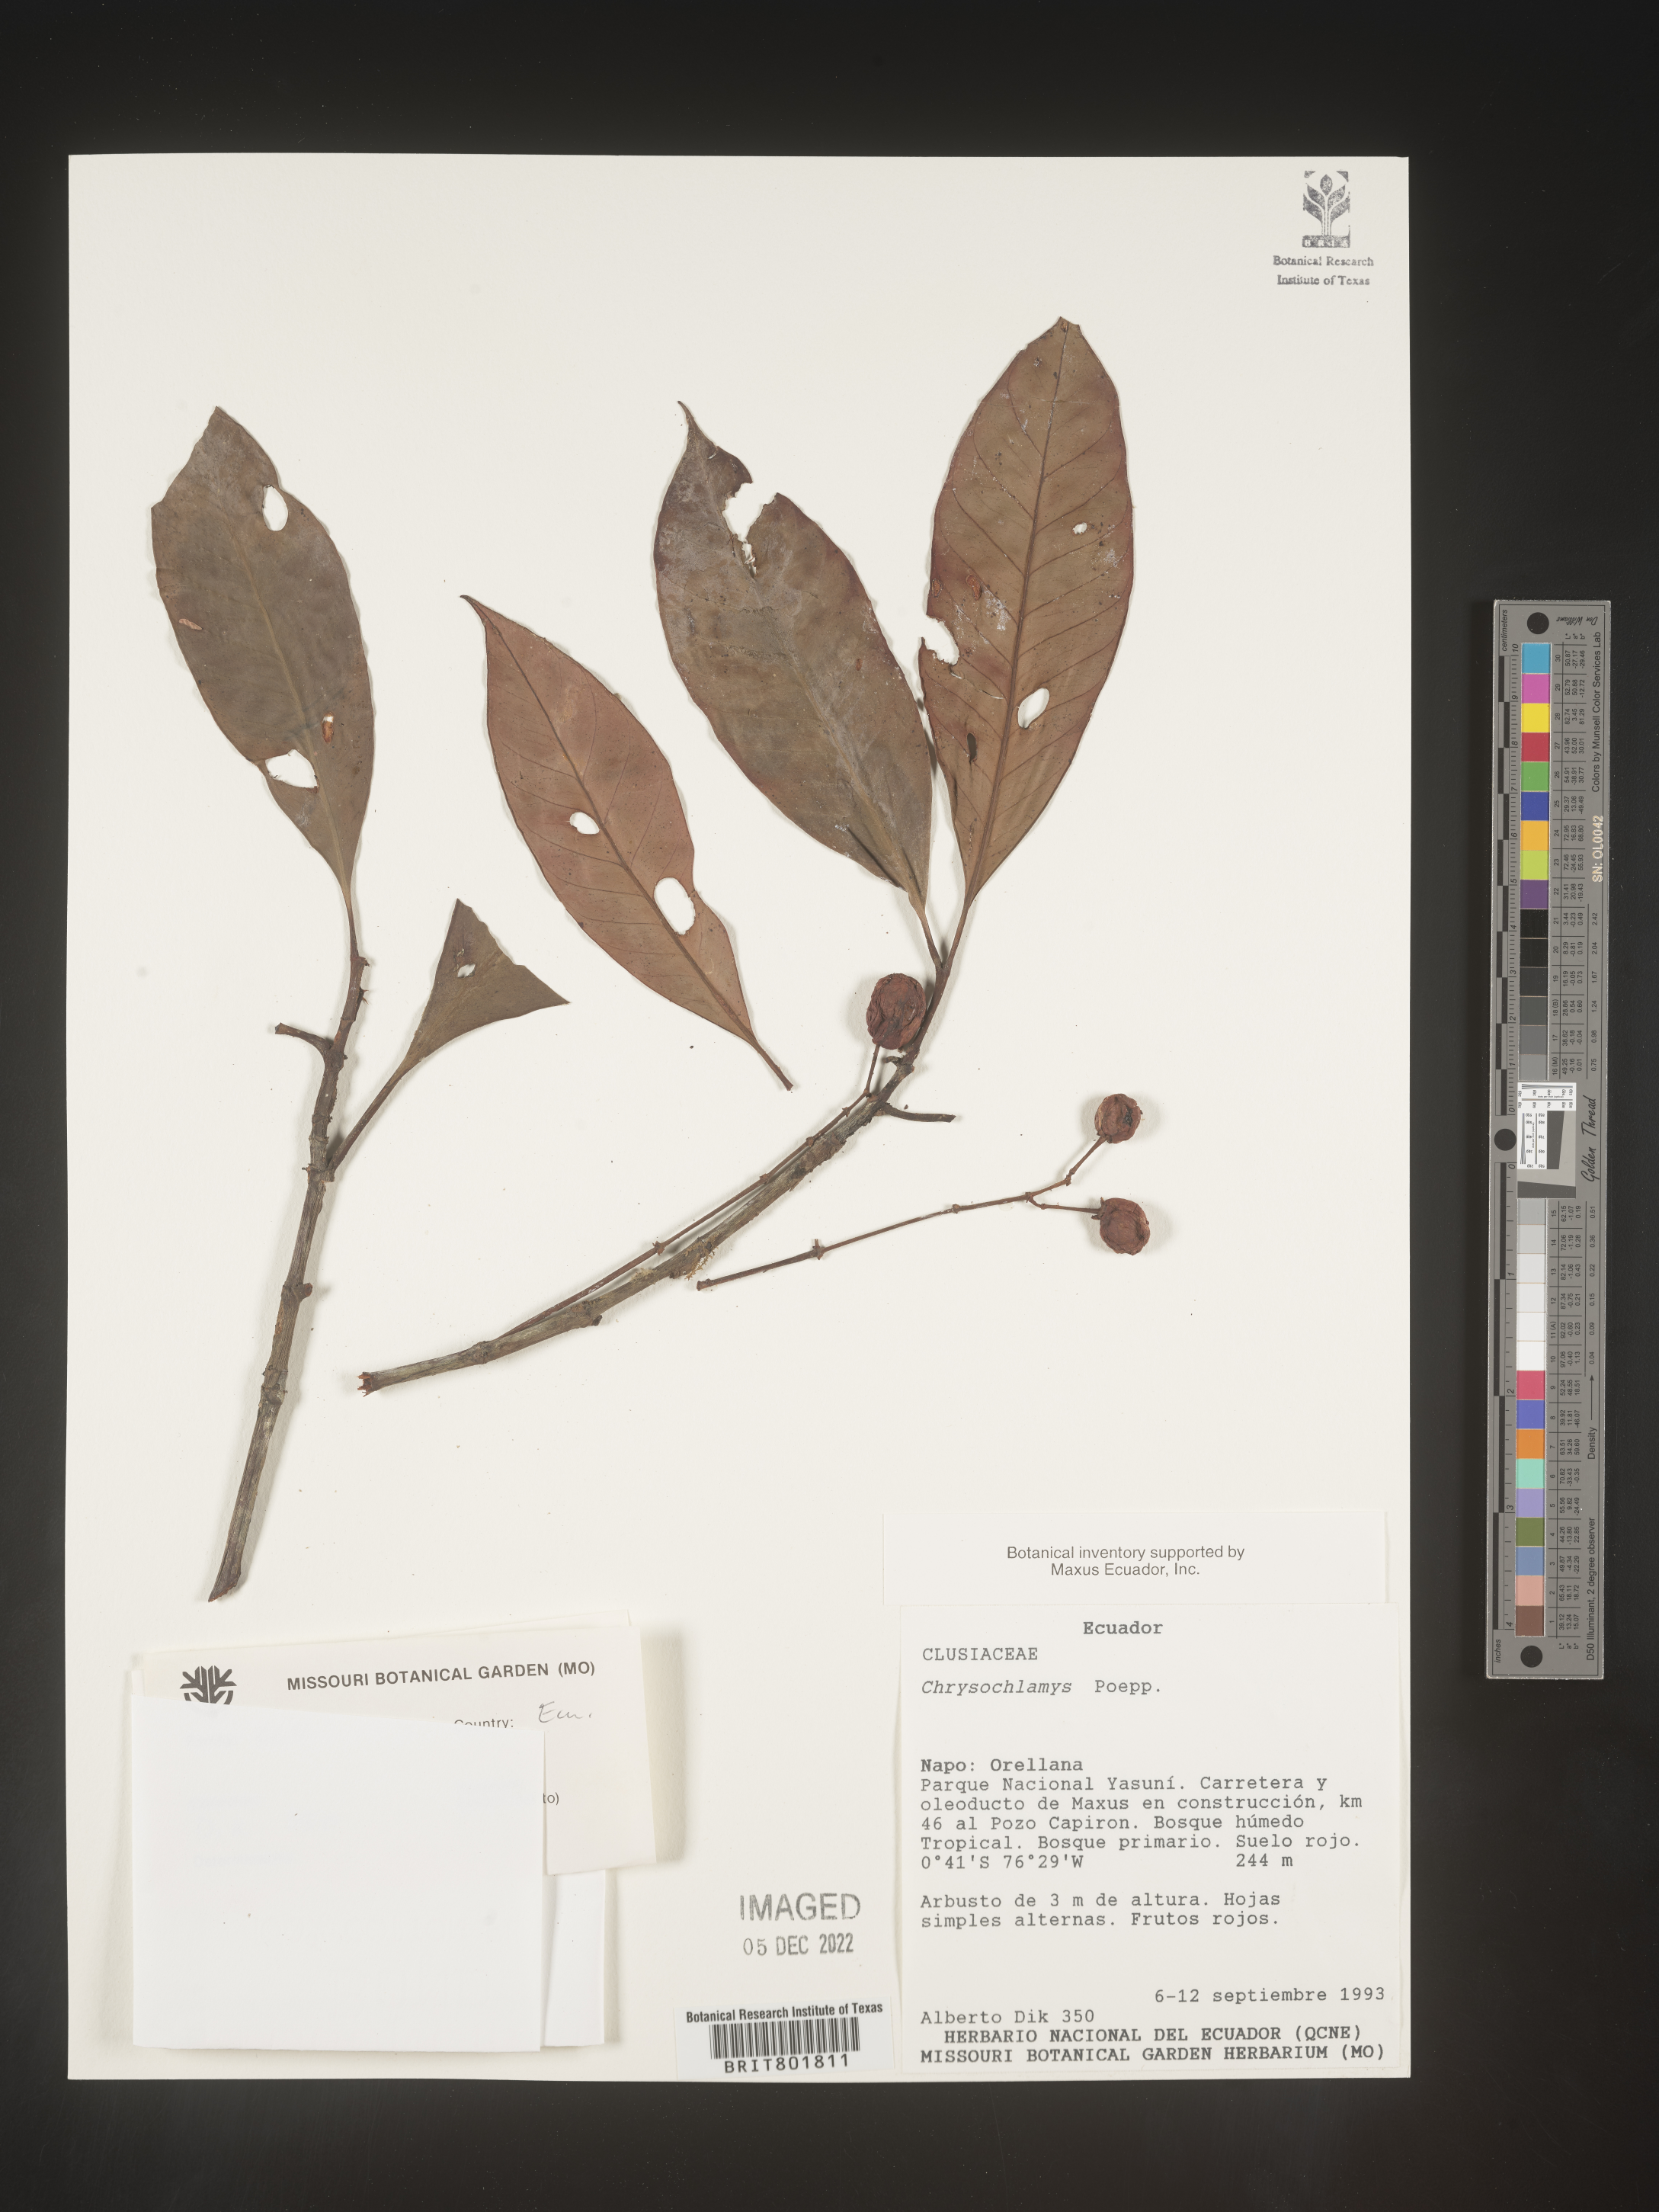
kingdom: Plantae
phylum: Tracheophyta
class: Magnoliopsida
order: Malpighiales
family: Clusiaceae
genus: Chrysochlamys
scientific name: Chrysochlamys
